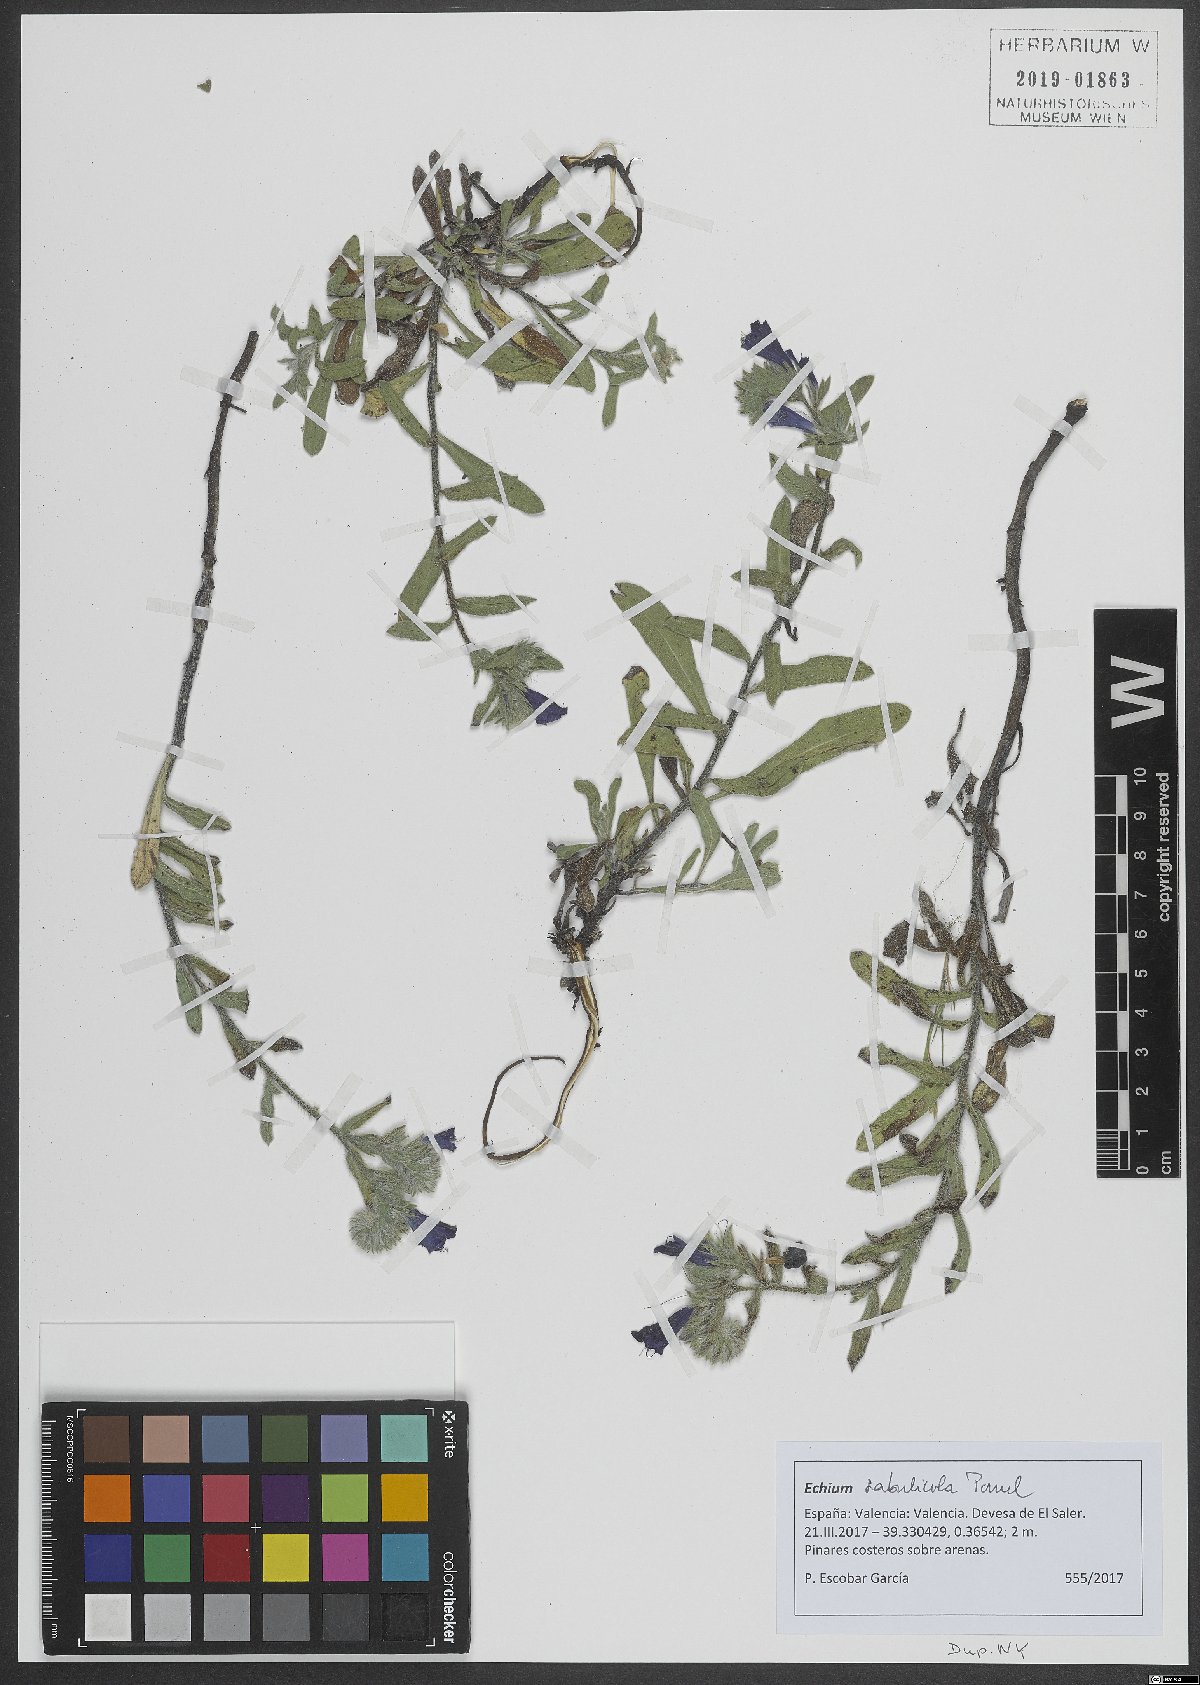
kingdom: Plantae
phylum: Tracheophyta
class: Magnoliopsida
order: Boraginales
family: Boraginaceae
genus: Echium
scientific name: Echium sabulicola
